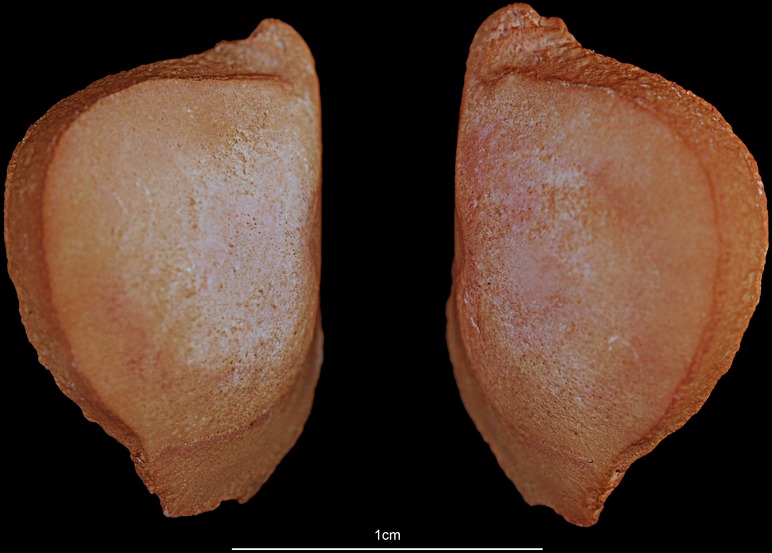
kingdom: Animalia
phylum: Chordata
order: Siluriformes
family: Ariidae
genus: Netuma
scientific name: Netuma thalassina
